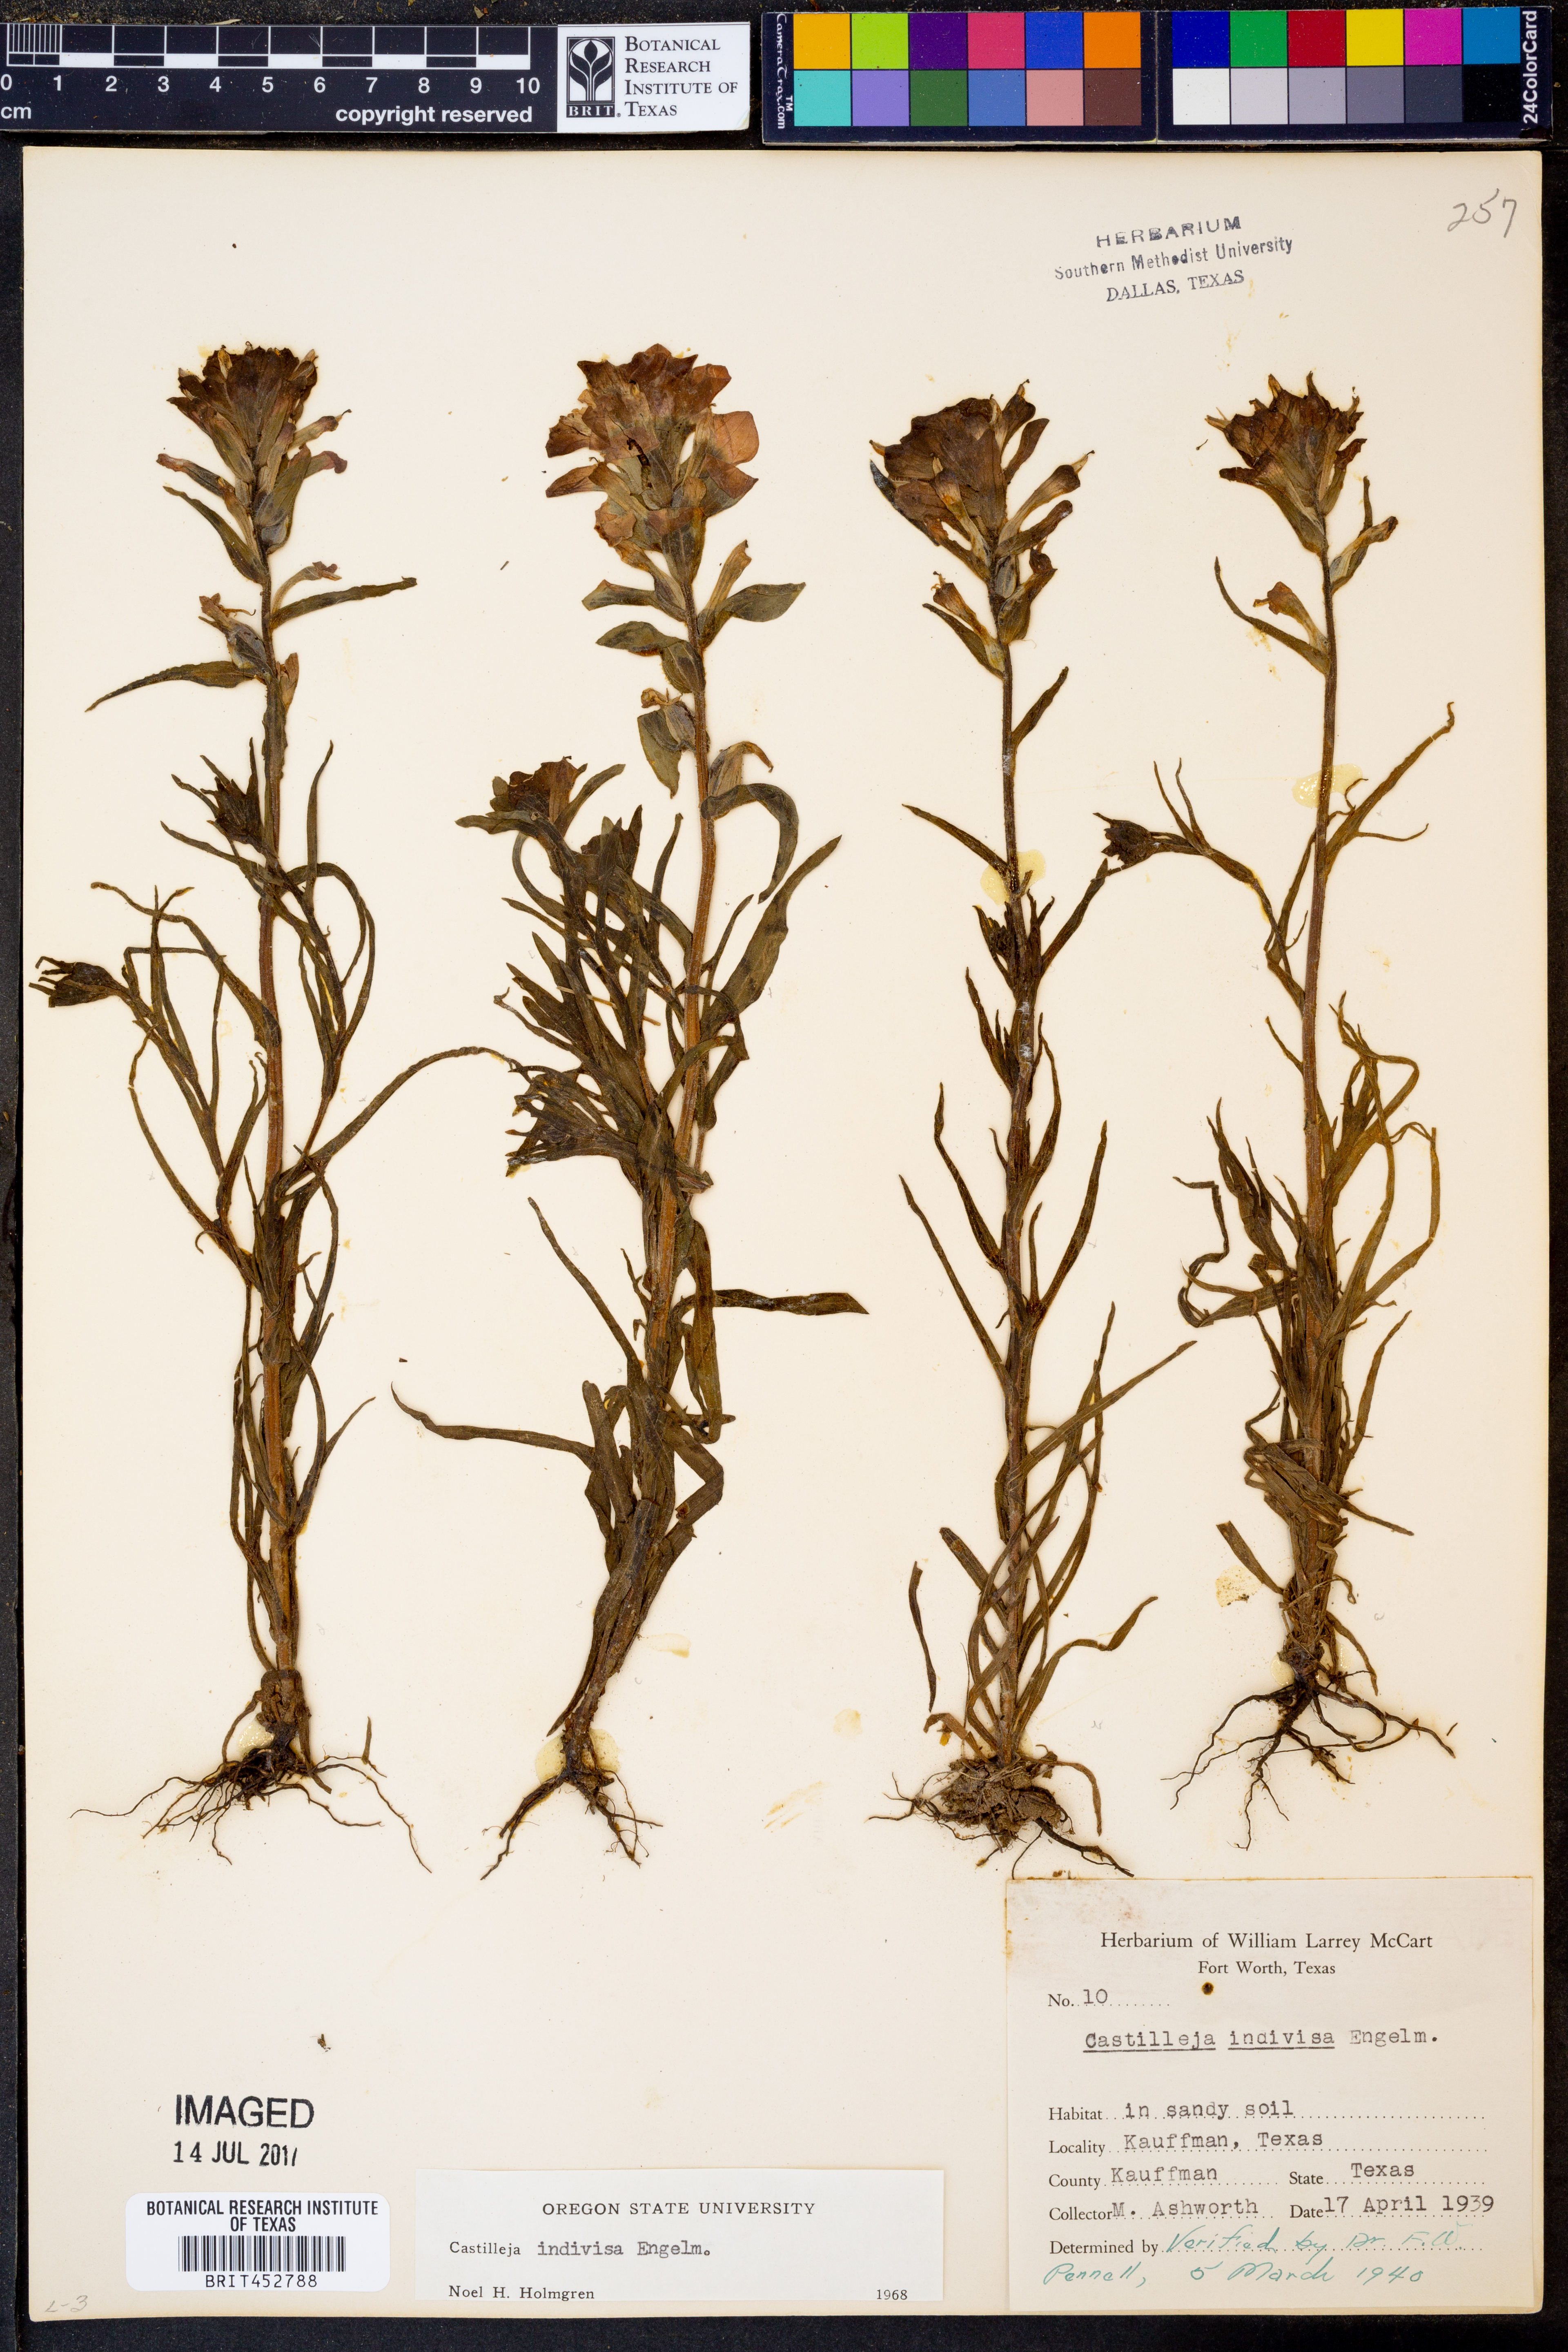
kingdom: Plantae
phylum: Tracheophyta
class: Magnoliopsida
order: Lamiales
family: Orobanchaceae
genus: Castilleja
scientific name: Castilleja indivisa
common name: Texas paintbrush
